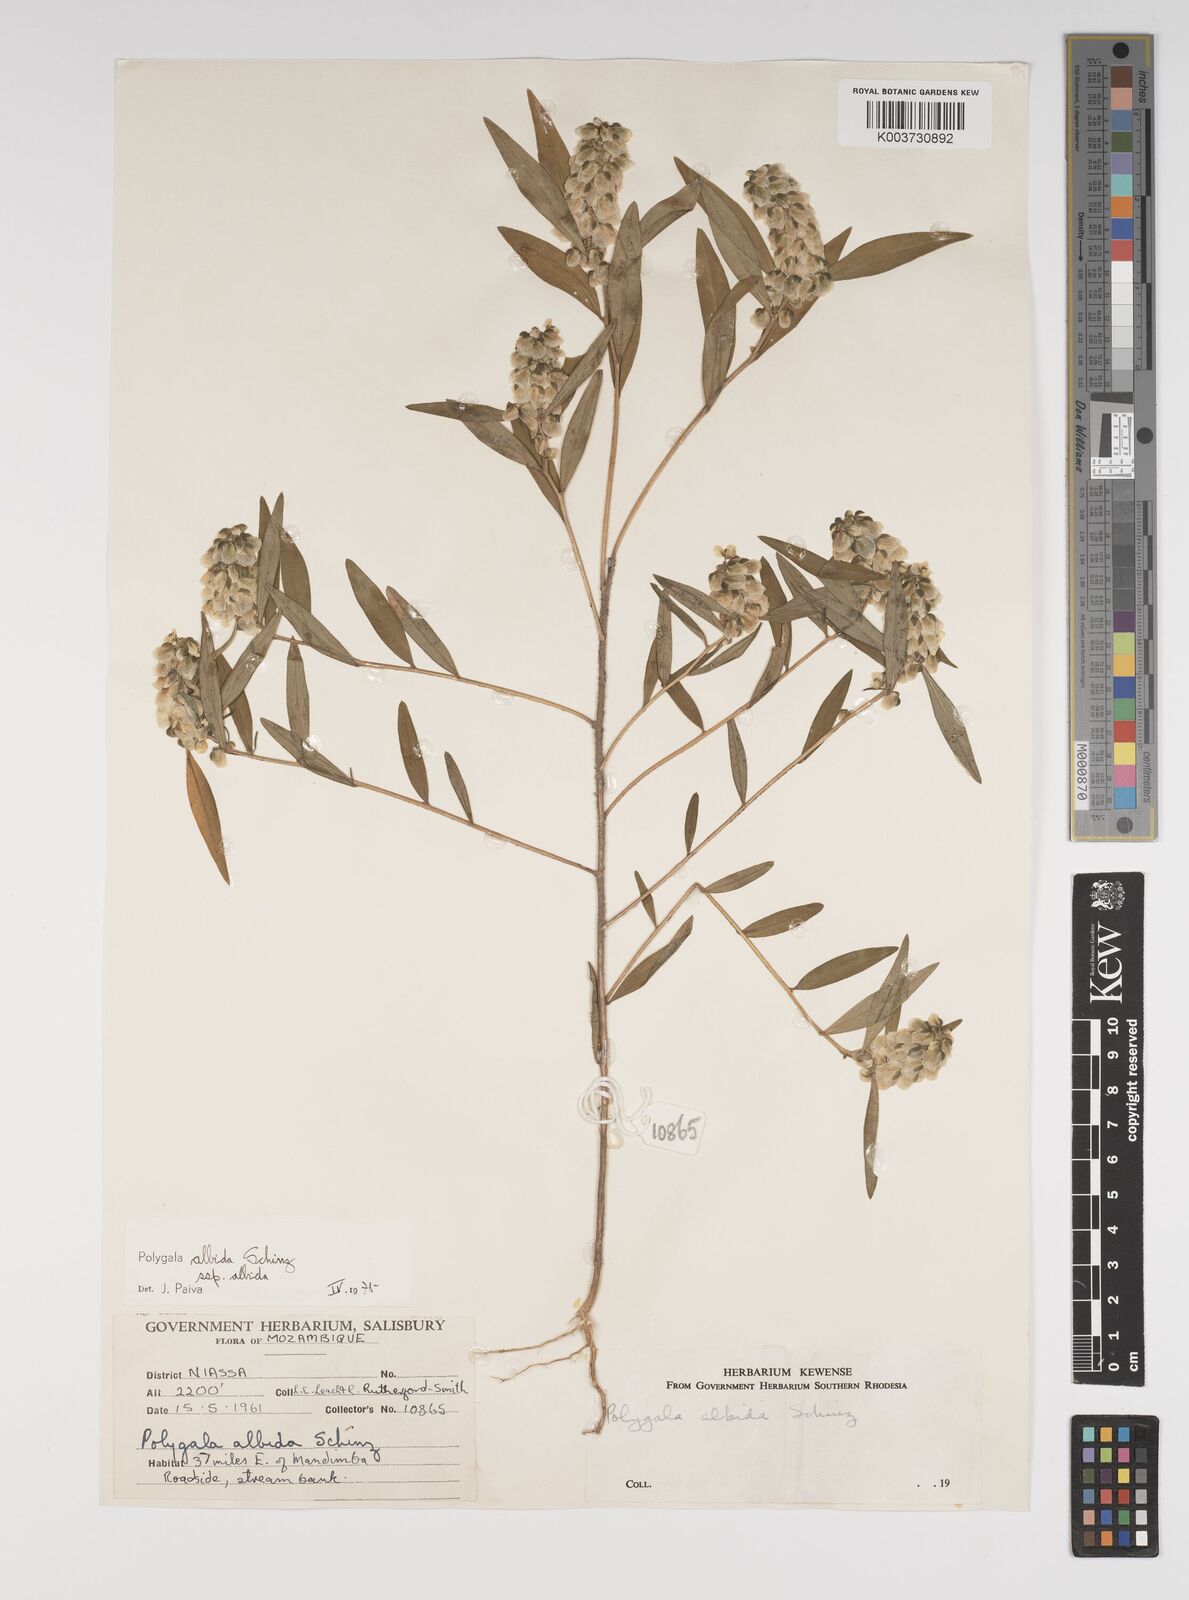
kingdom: Plantae
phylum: Tracheophyta
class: Magnoliopsida
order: Fabales
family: Polygalaceae
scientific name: Polygalaceae
